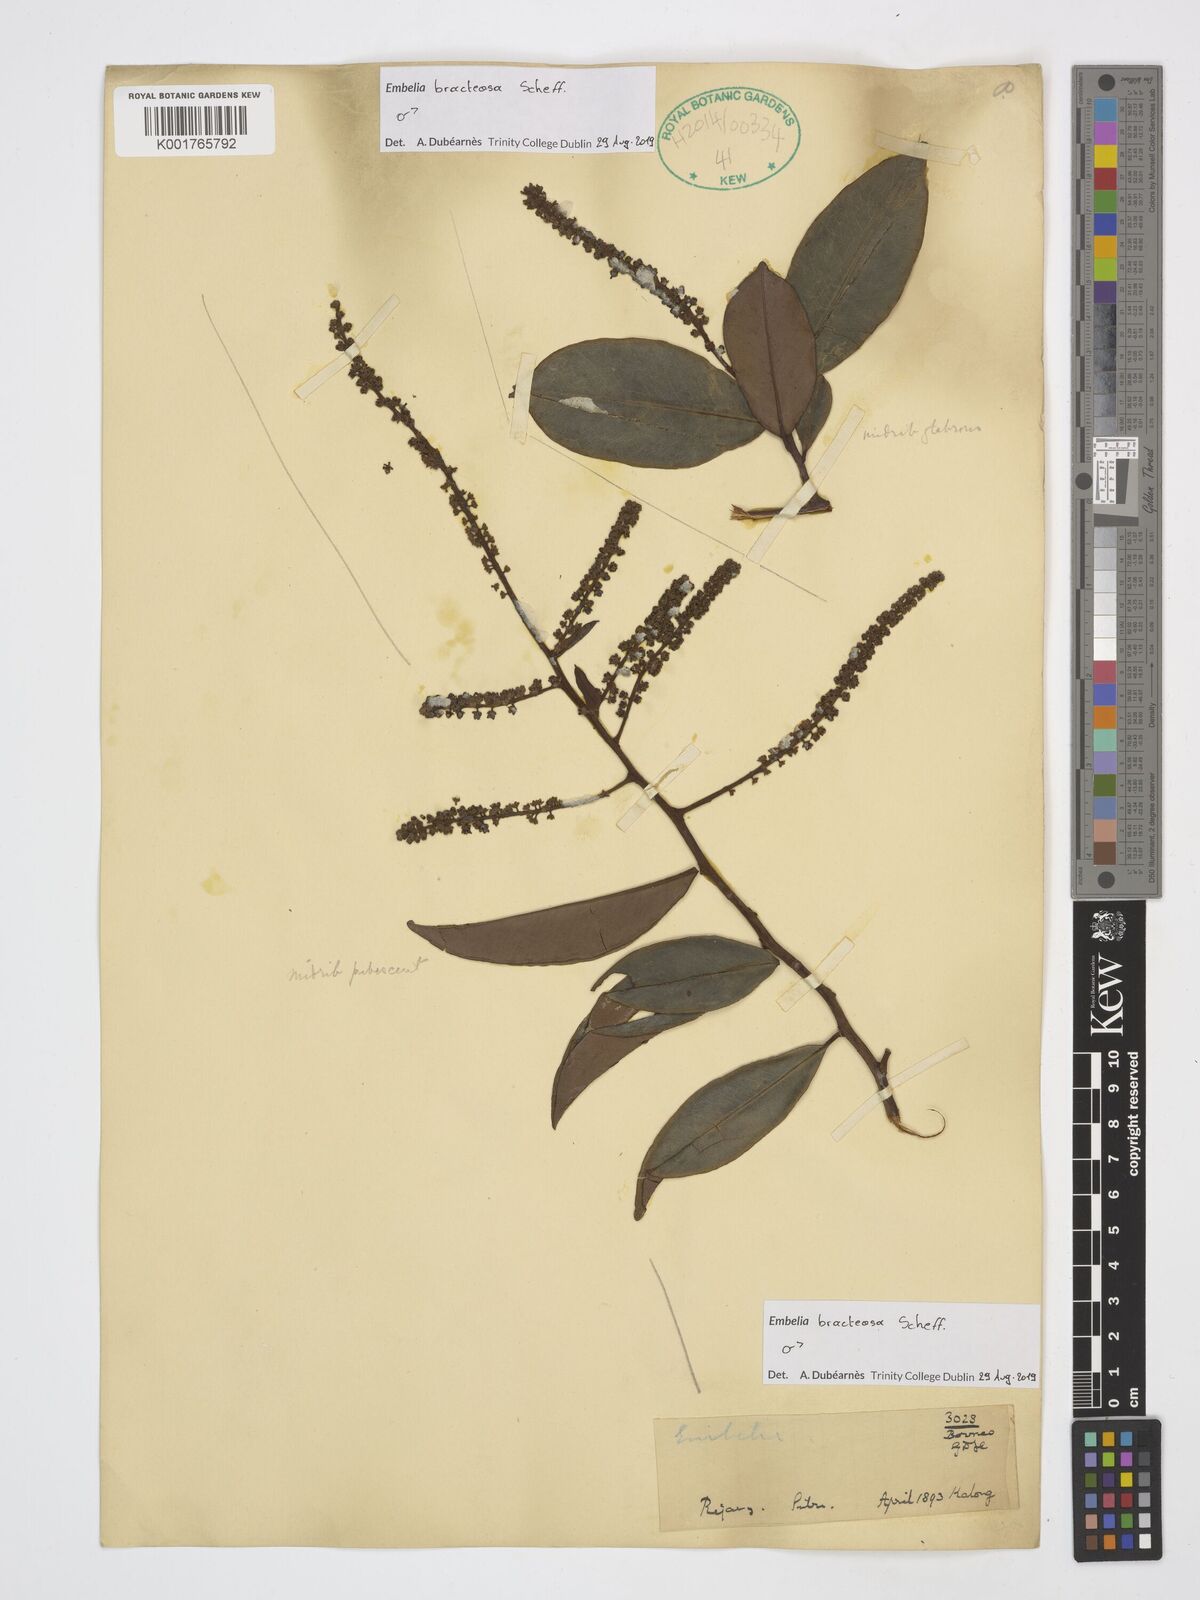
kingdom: Plantae
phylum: Tracheophyta
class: Magnoliopsida
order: Ericales
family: Primulaceae
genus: Grenacheria
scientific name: Grenacheria bracteosa
